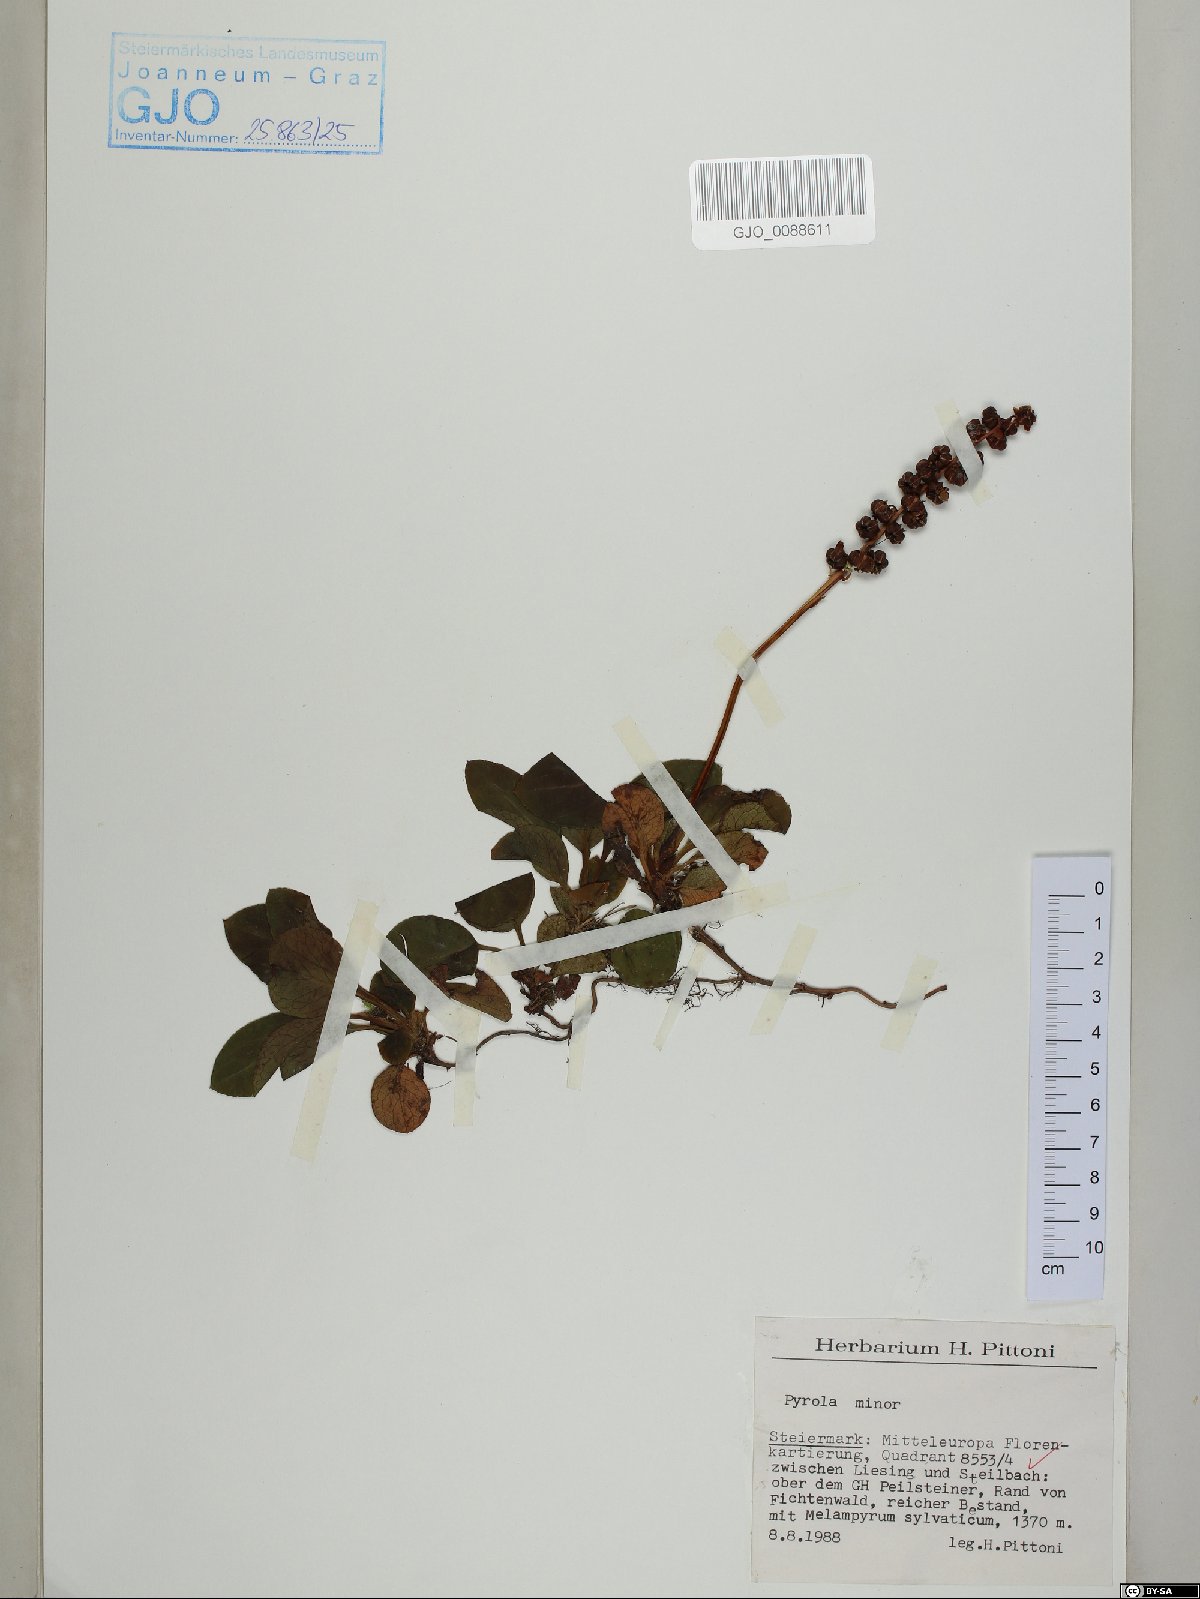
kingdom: Plantae
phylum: Tracheophyta
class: Magnoliopsida
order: Ericales
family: Ericaceae
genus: Pyrola
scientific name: Pyrola minor
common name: Common wintergreen
